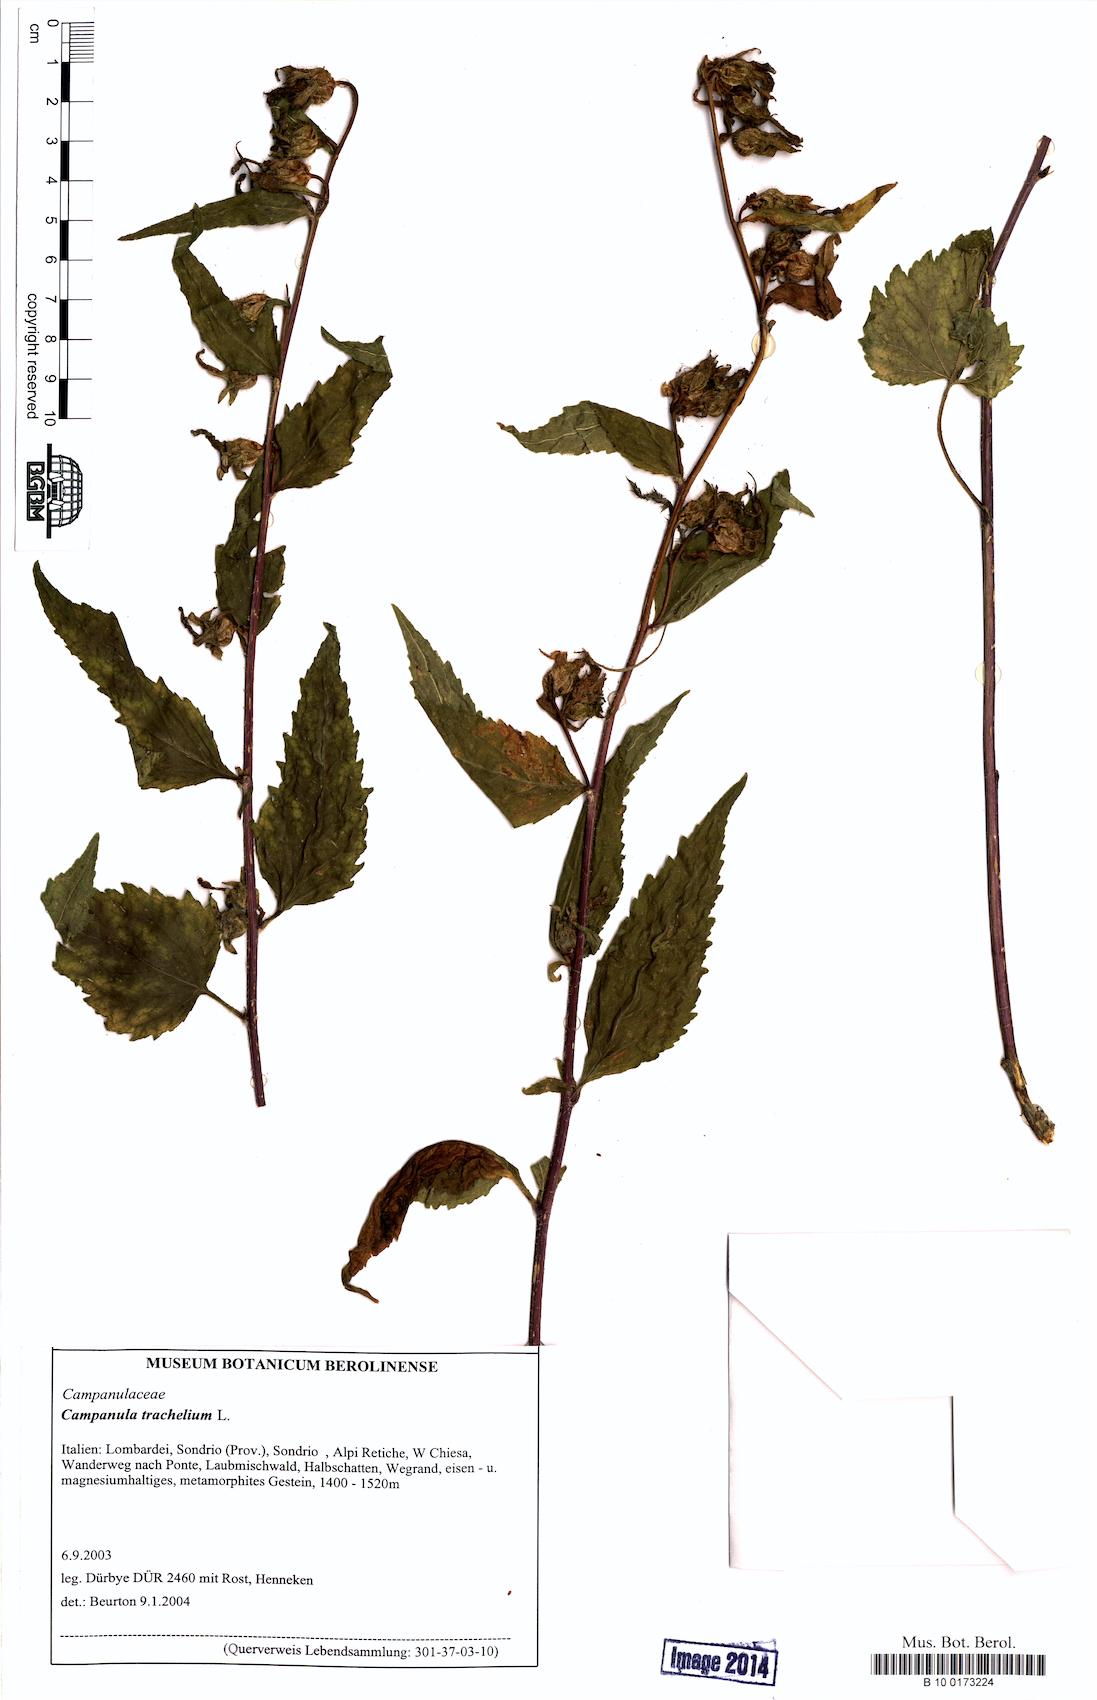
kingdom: Plantae
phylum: Tracheophyta
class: Magnoliopsida
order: Asterales
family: Campanulaceae
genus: Campanula
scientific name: Campanula trachelium
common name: Nettle-leaved bellflower
